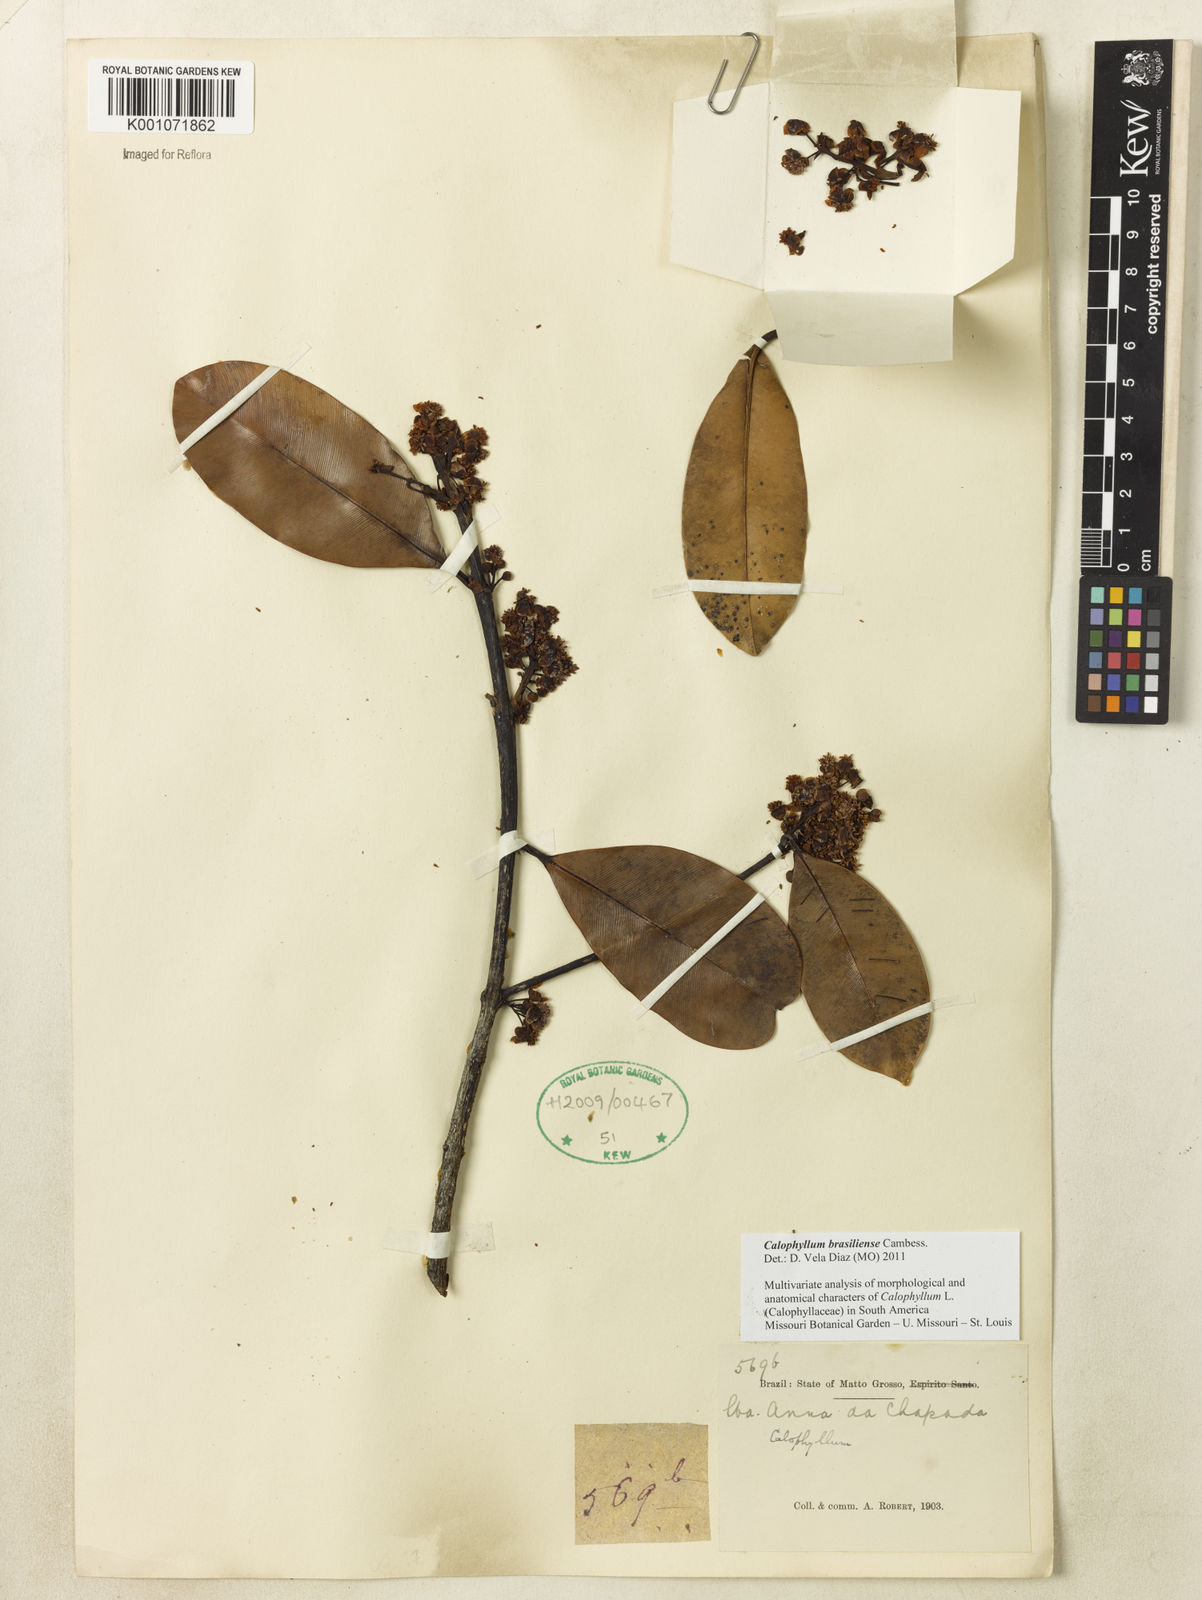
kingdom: Plantae
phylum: Tracheophyta
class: Magnoliopsida
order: Malpighiales
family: Calophyllaceae
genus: Calophyllum
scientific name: Calophyllum brasiliense
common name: Santa maria
